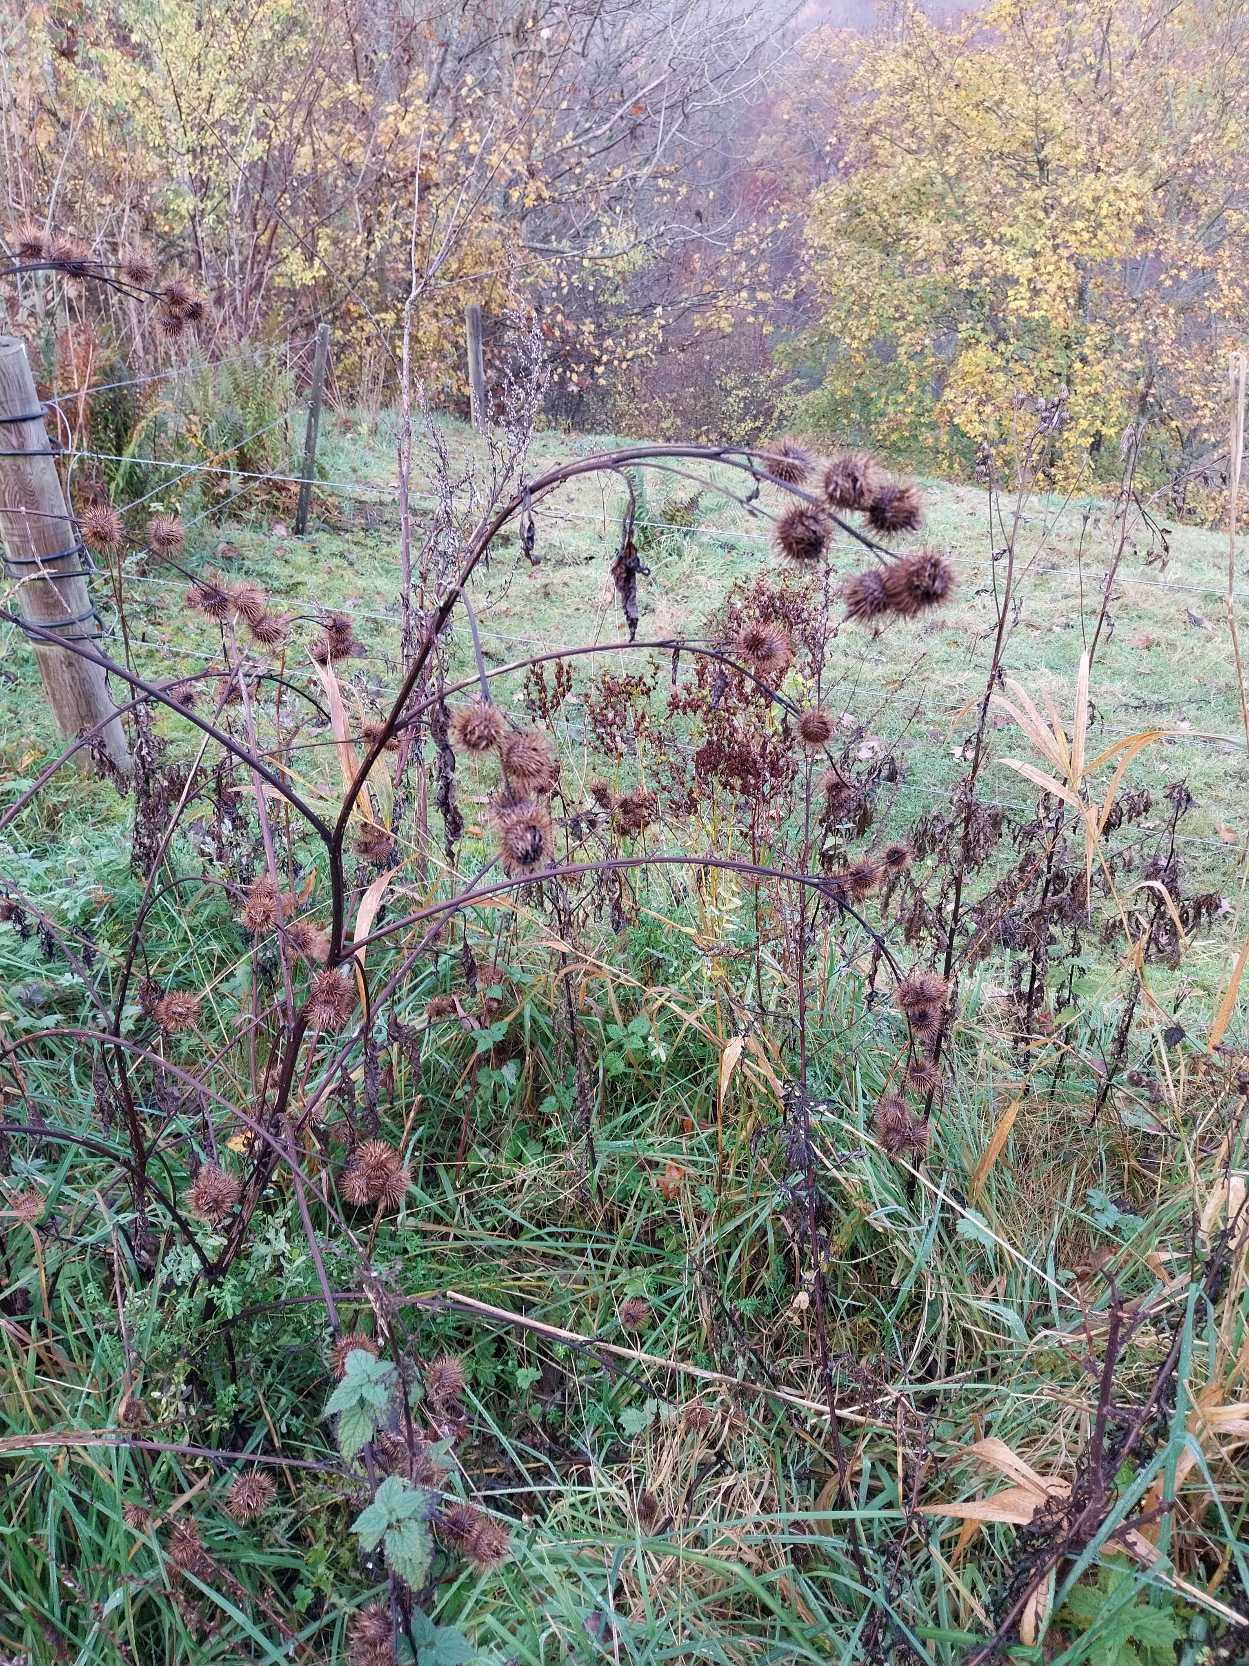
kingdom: Plantae
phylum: Tracheophyta
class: Magnoliopsida
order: Asterales
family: Asteraceae
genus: Arctium
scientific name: Arctium nemorosum
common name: Skov-burre
